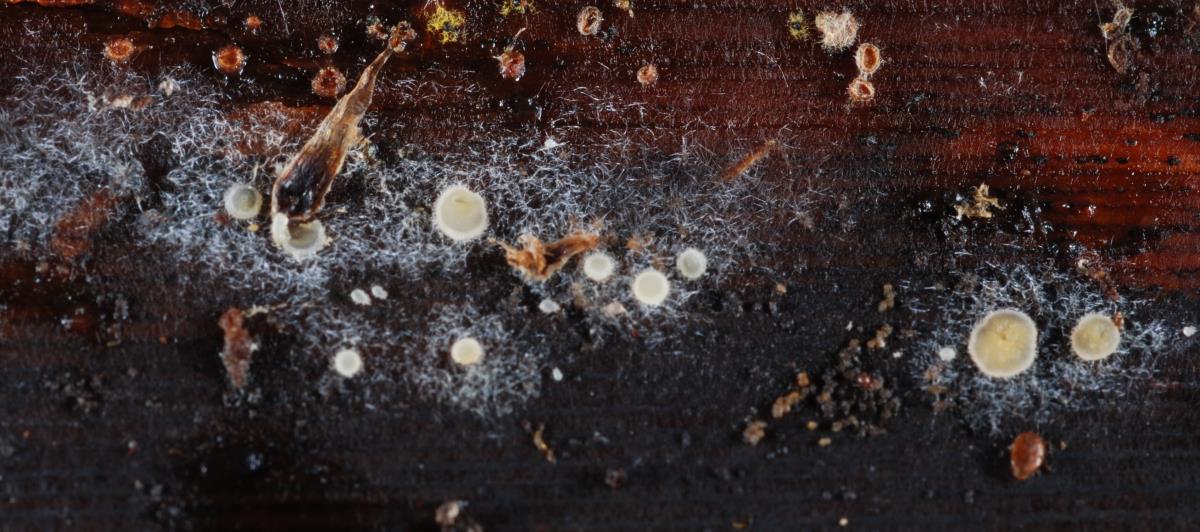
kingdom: Fungi
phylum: Ascomycota
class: Leotiomycetes
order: Helotiales
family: Arachnopezizaceae
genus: Arachnopeziza
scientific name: Arachnopeziza
